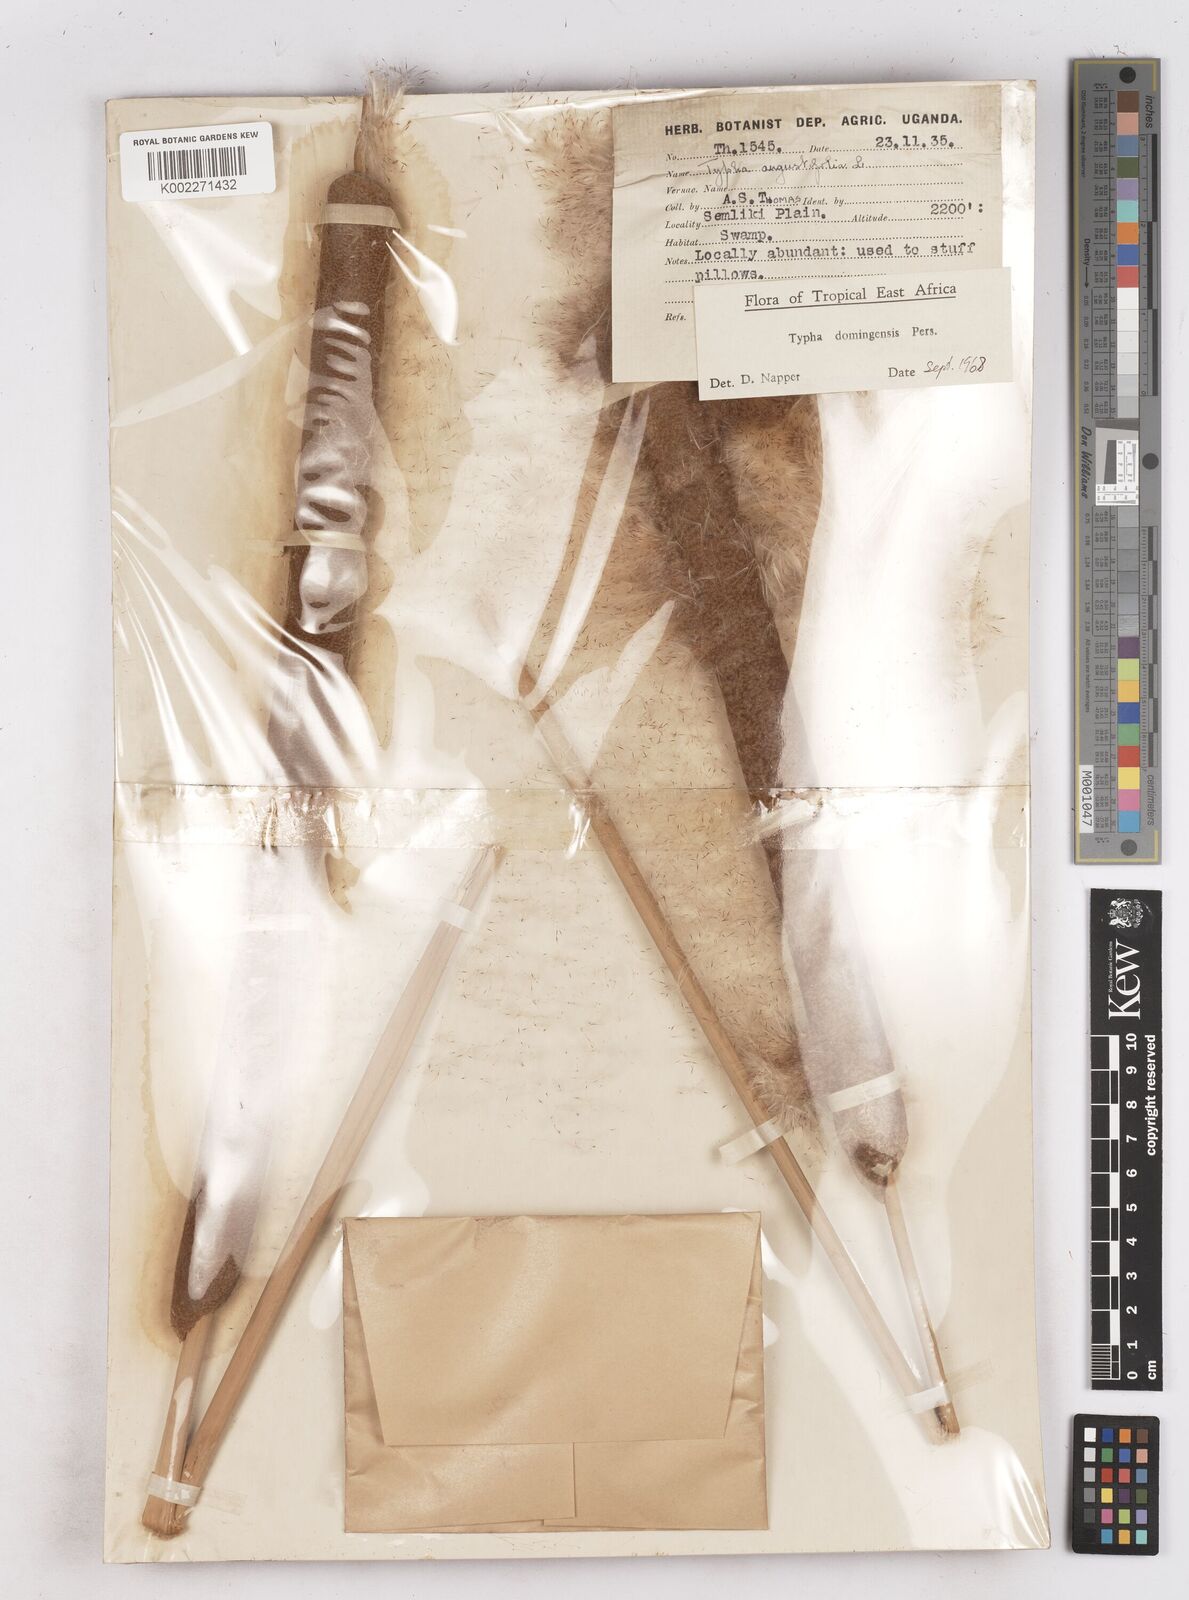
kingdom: Plantae
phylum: Tracheophyta
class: Liliopsida
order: Poales
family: Typhaceae
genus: Typha
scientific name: Typha domingensis
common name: Southern cattail
